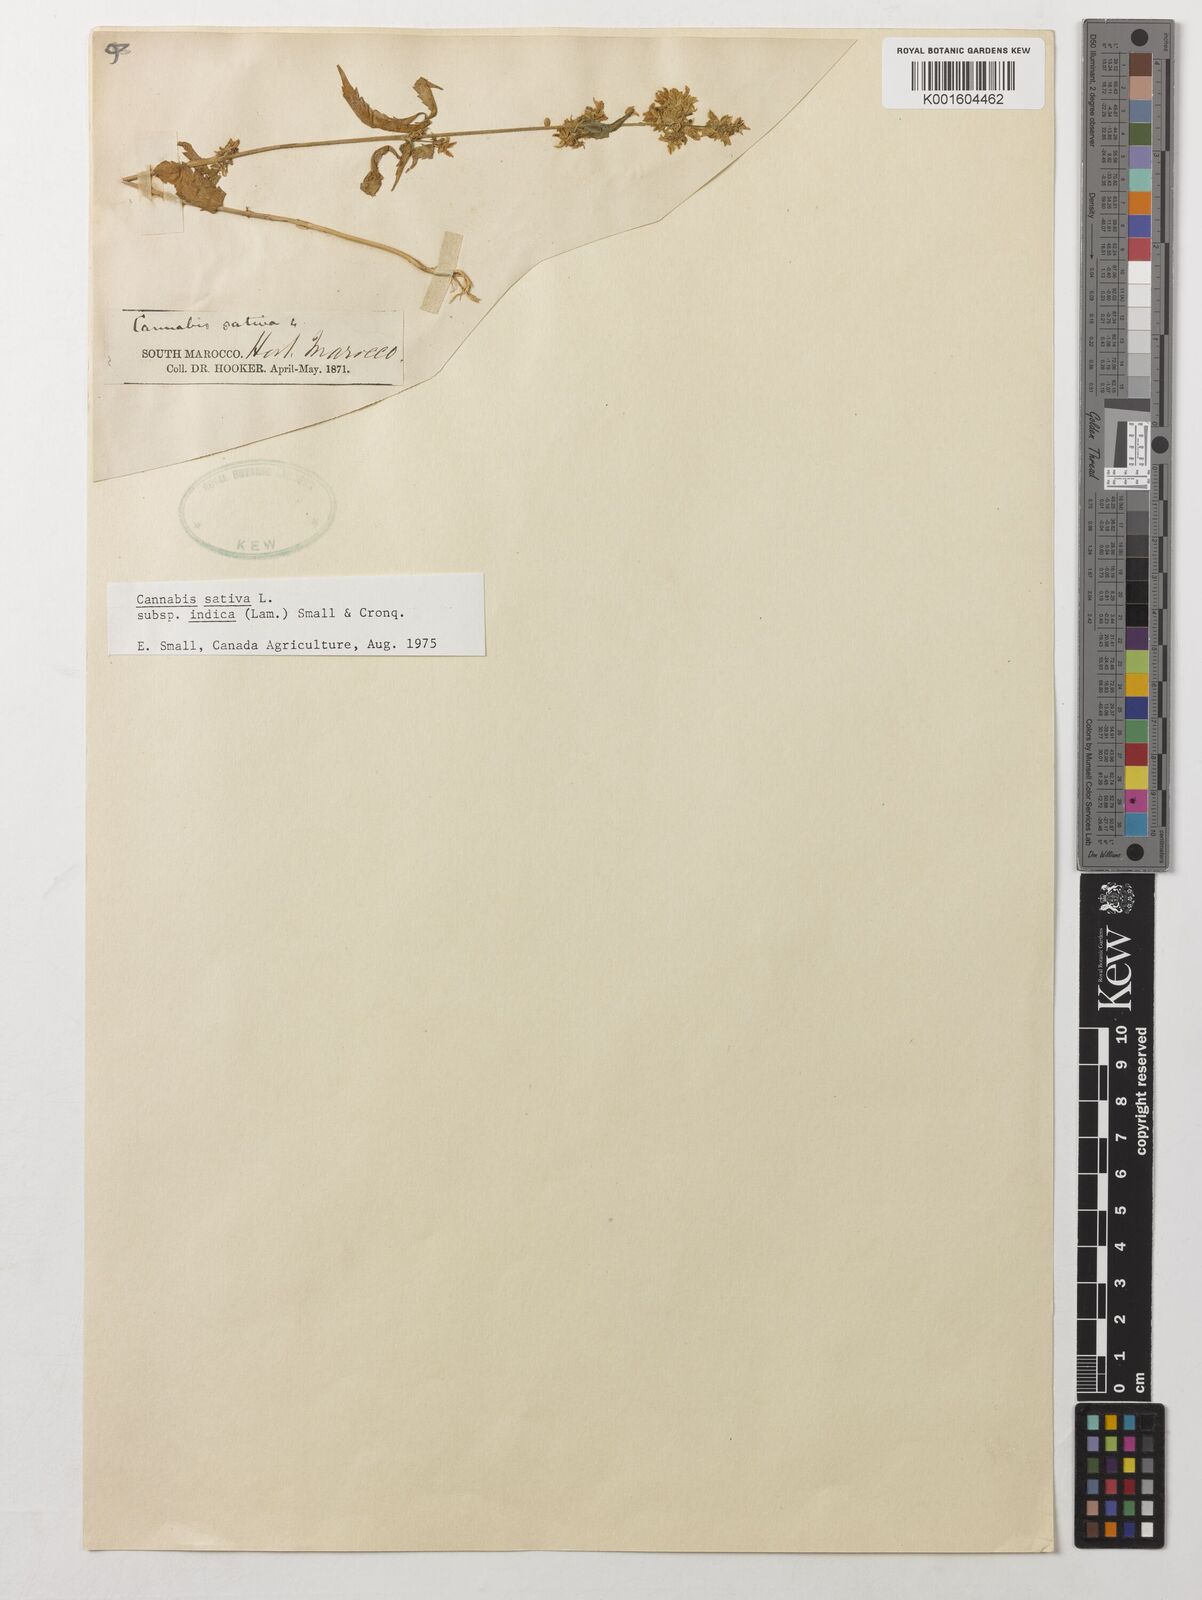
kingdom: Plantae
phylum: Tracheophyta
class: Magnoliopsida
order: Rosales
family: Cannabaceae
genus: Cannabis
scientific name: Cannabis sativa
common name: Hemp
